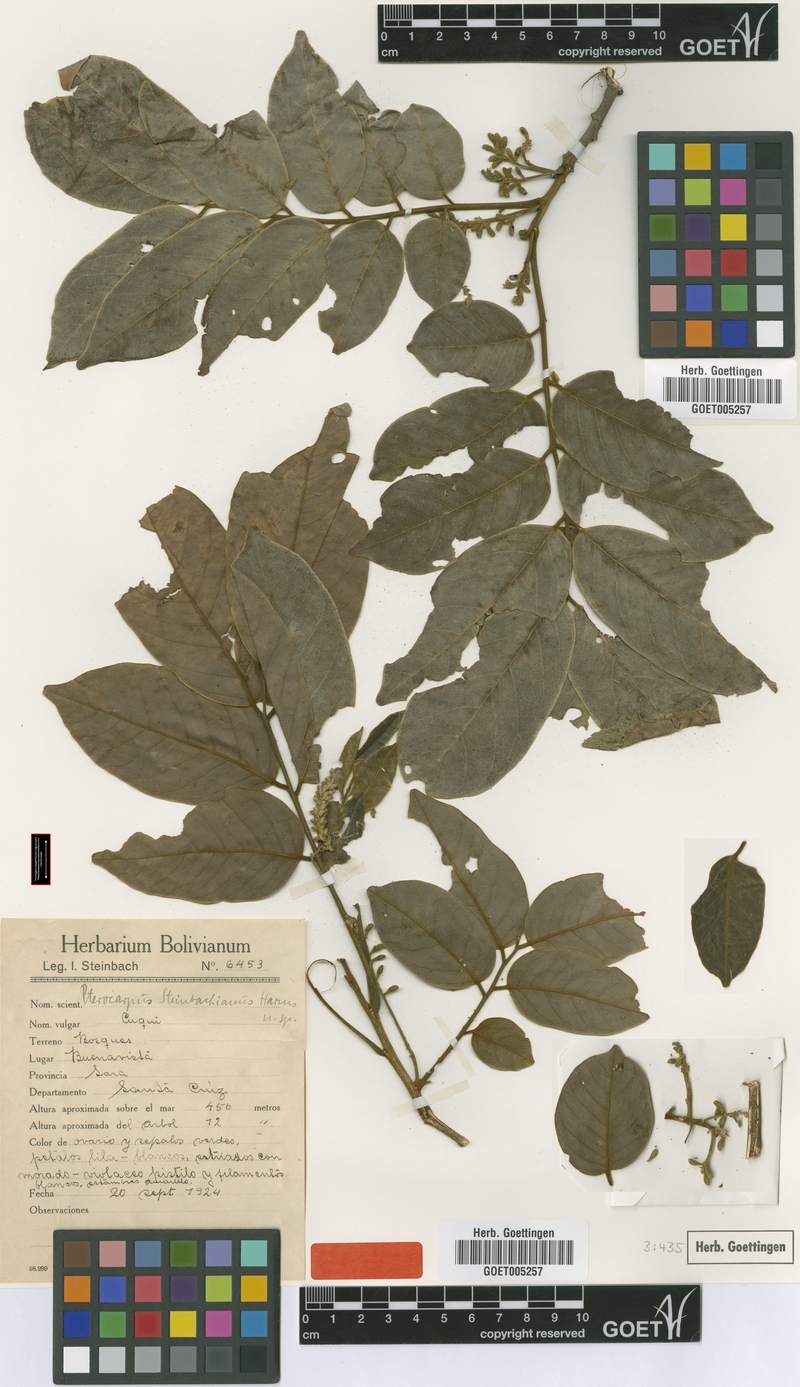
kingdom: Plantae
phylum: Tracheophyta
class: Magnoliopsida
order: Fabales
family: Fabaceae
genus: Pterocarpus
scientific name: Pterocarpus steinbachianus
